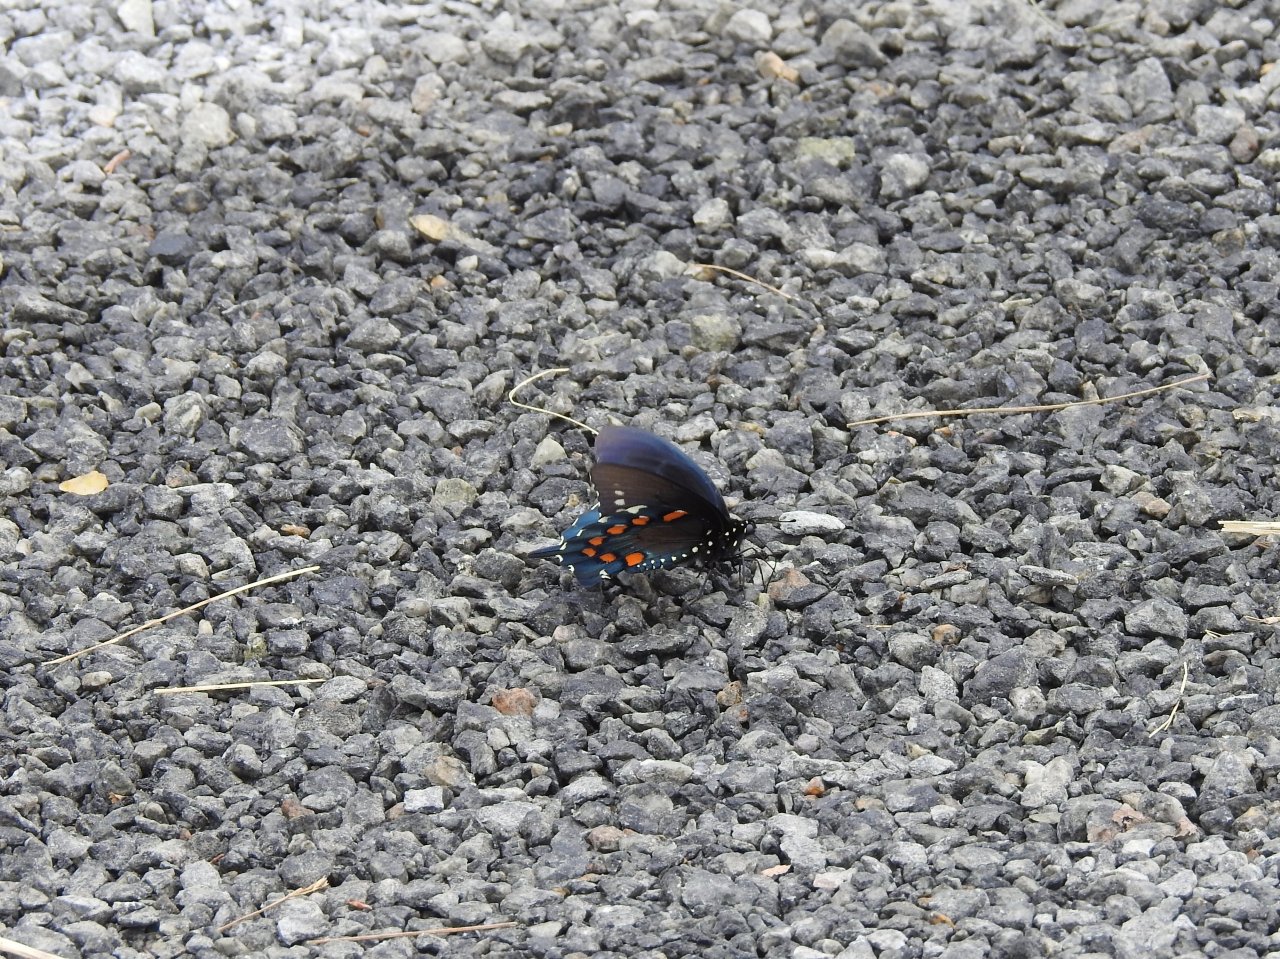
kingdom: Animalia
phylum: Arthropoda
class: Insecta
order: Lepidoptera
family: Papilionidae
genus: Battus
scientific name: Battus philenor
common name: Pipevine Swallowtail
